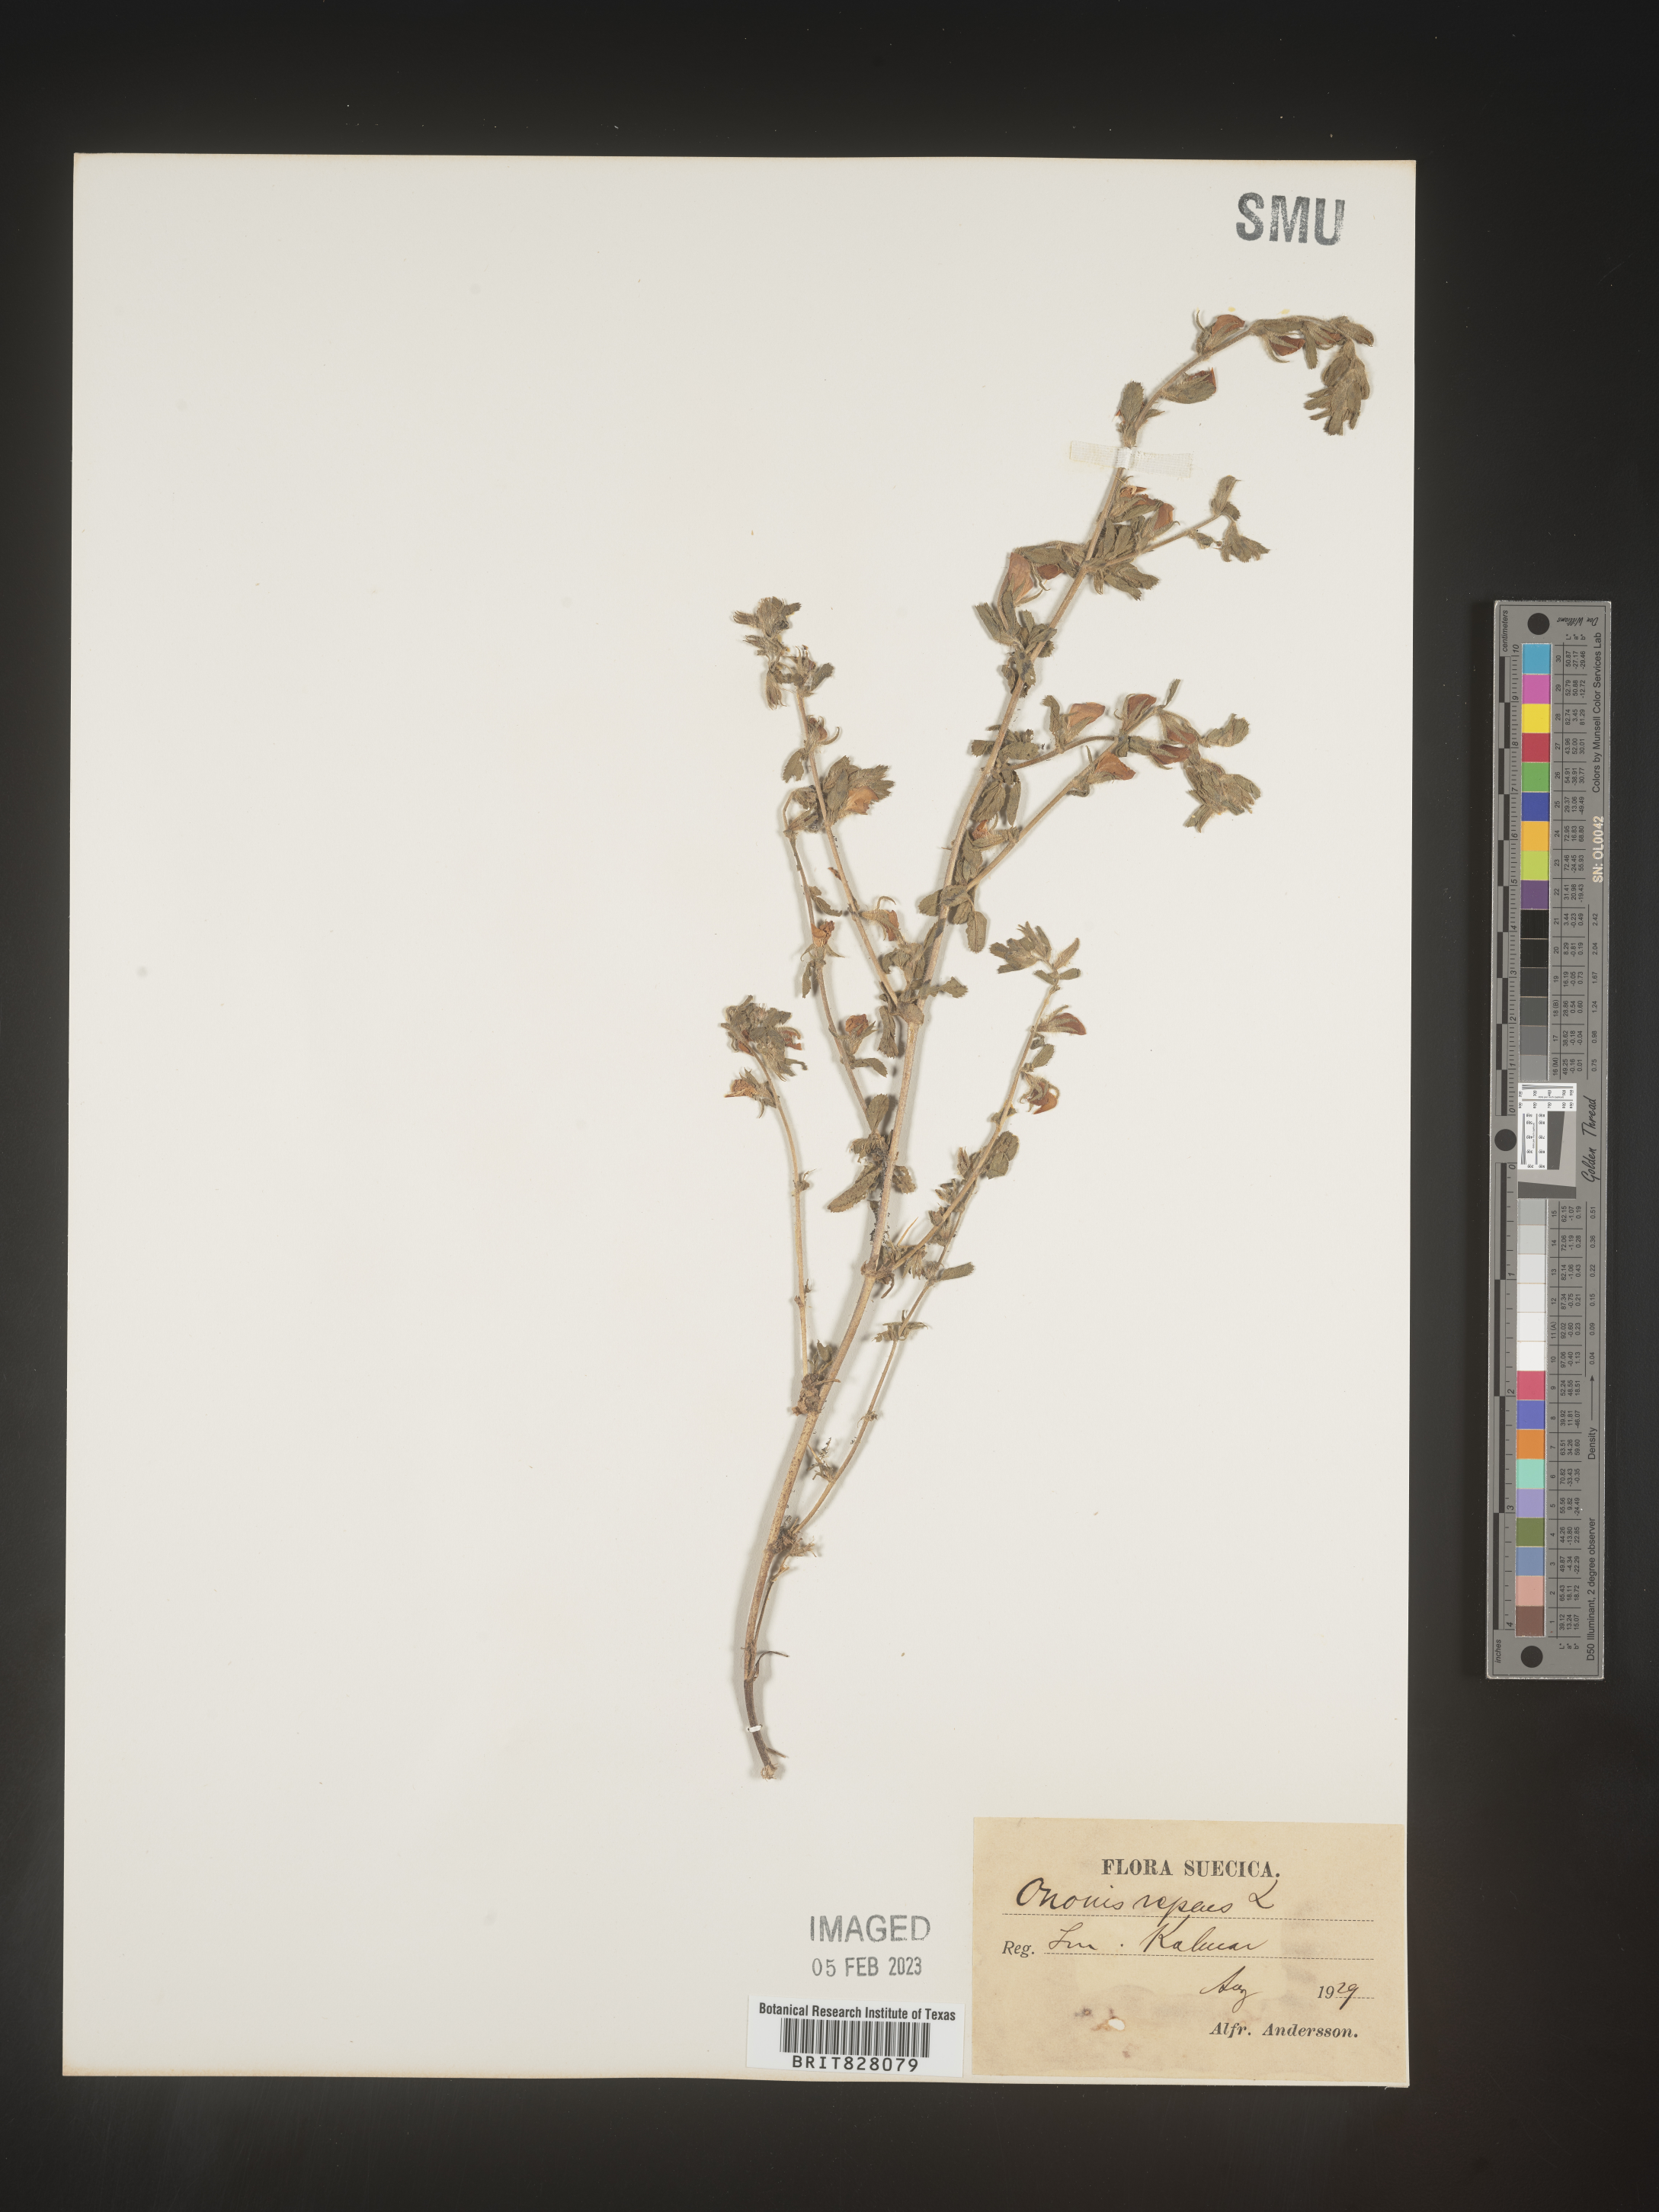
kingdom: Plantae
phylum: Tracheophyta
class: Magnoliopsida
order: Fabales
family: Fabaceae
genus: Ononis
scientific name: Ononis
